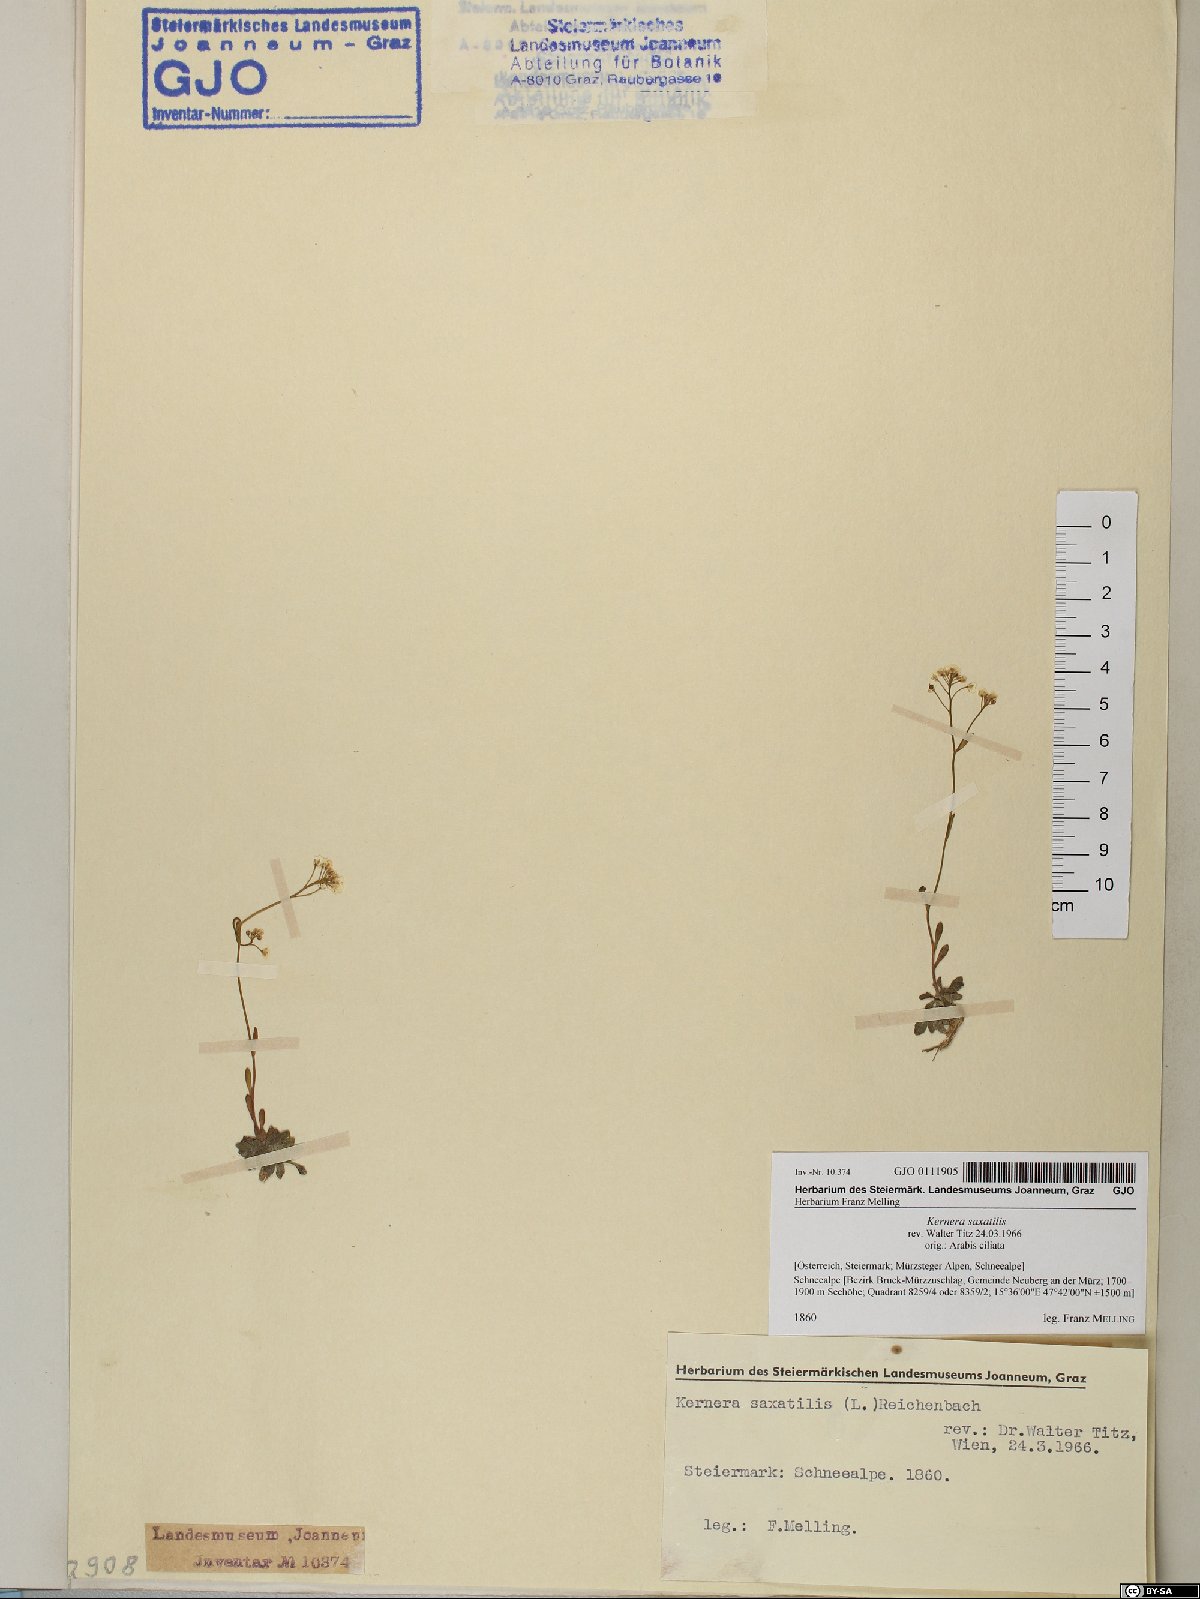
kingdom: Plantae
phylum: Tracheophyta
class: Magnoliopsida
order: Brassicales
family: Brassicaceae
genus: Kernera
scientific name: Kernera saxatilis
